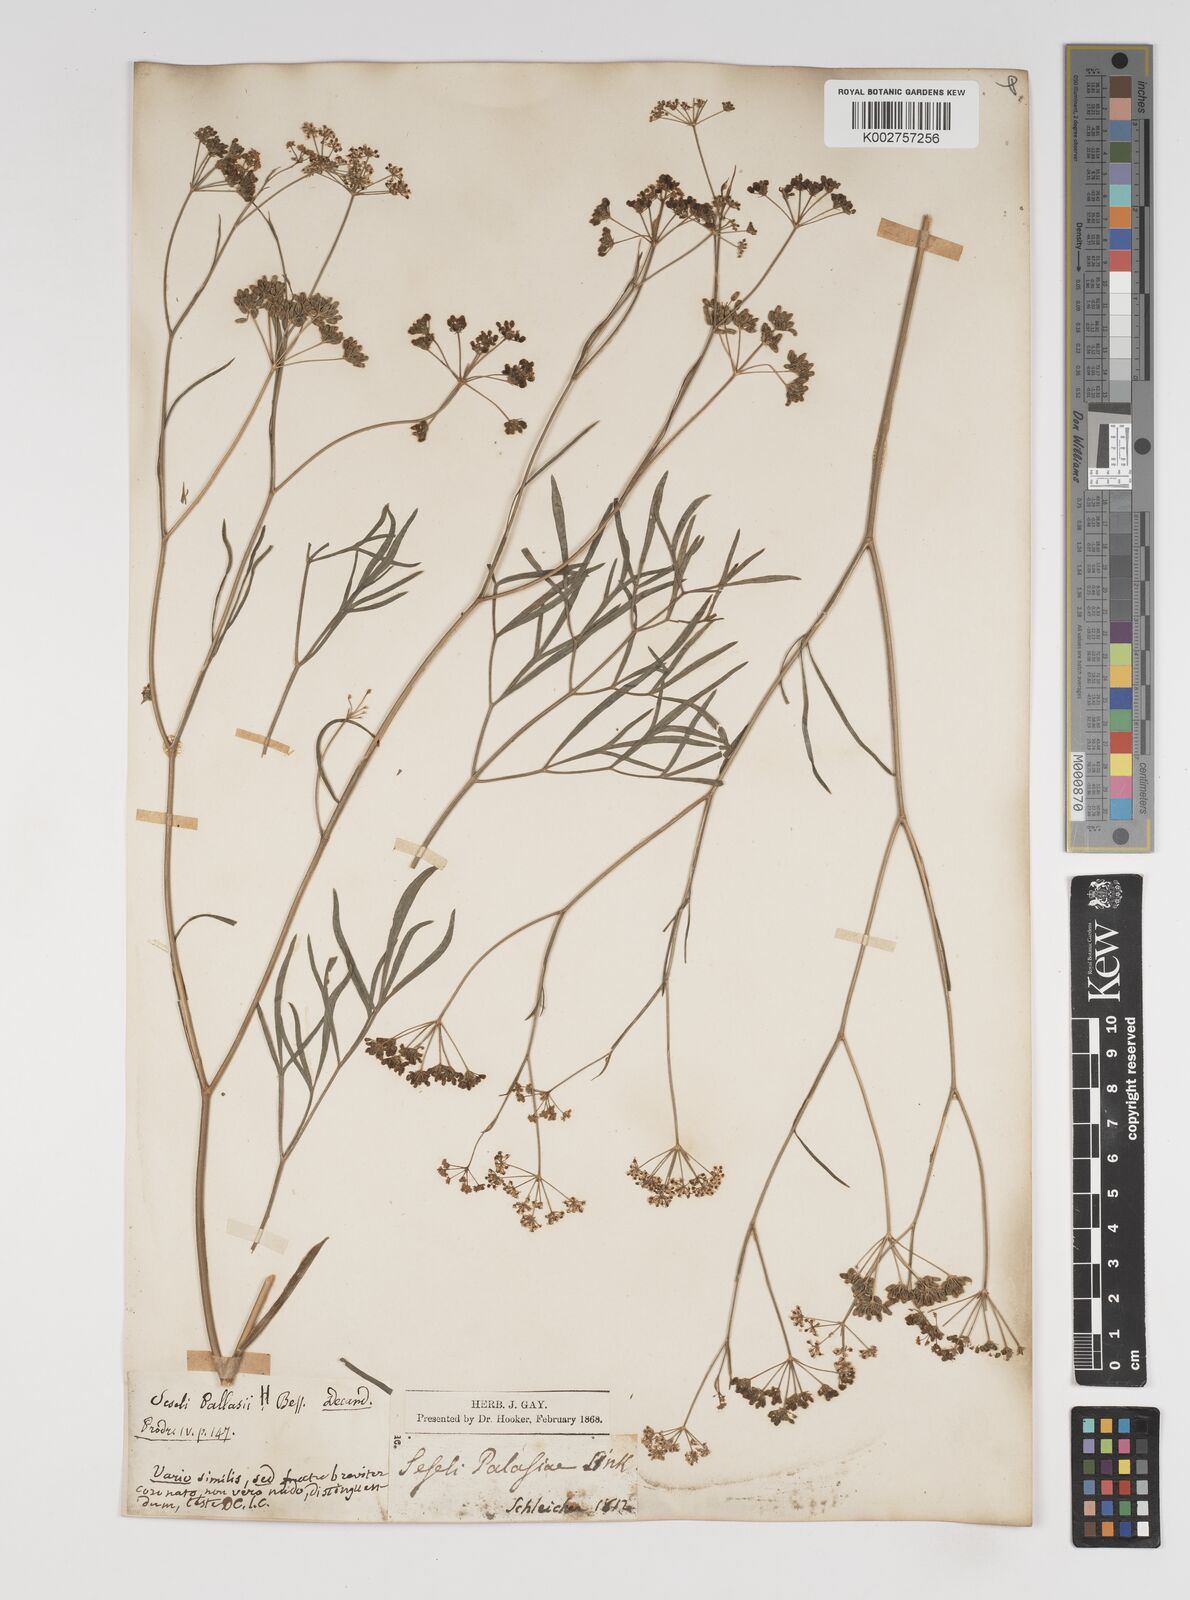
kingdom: Plantae
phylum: Tracheophyta
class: Magnoliopsida
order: Apiales
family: Apiaceae
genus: Seseli
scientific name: Seseli pallasii
